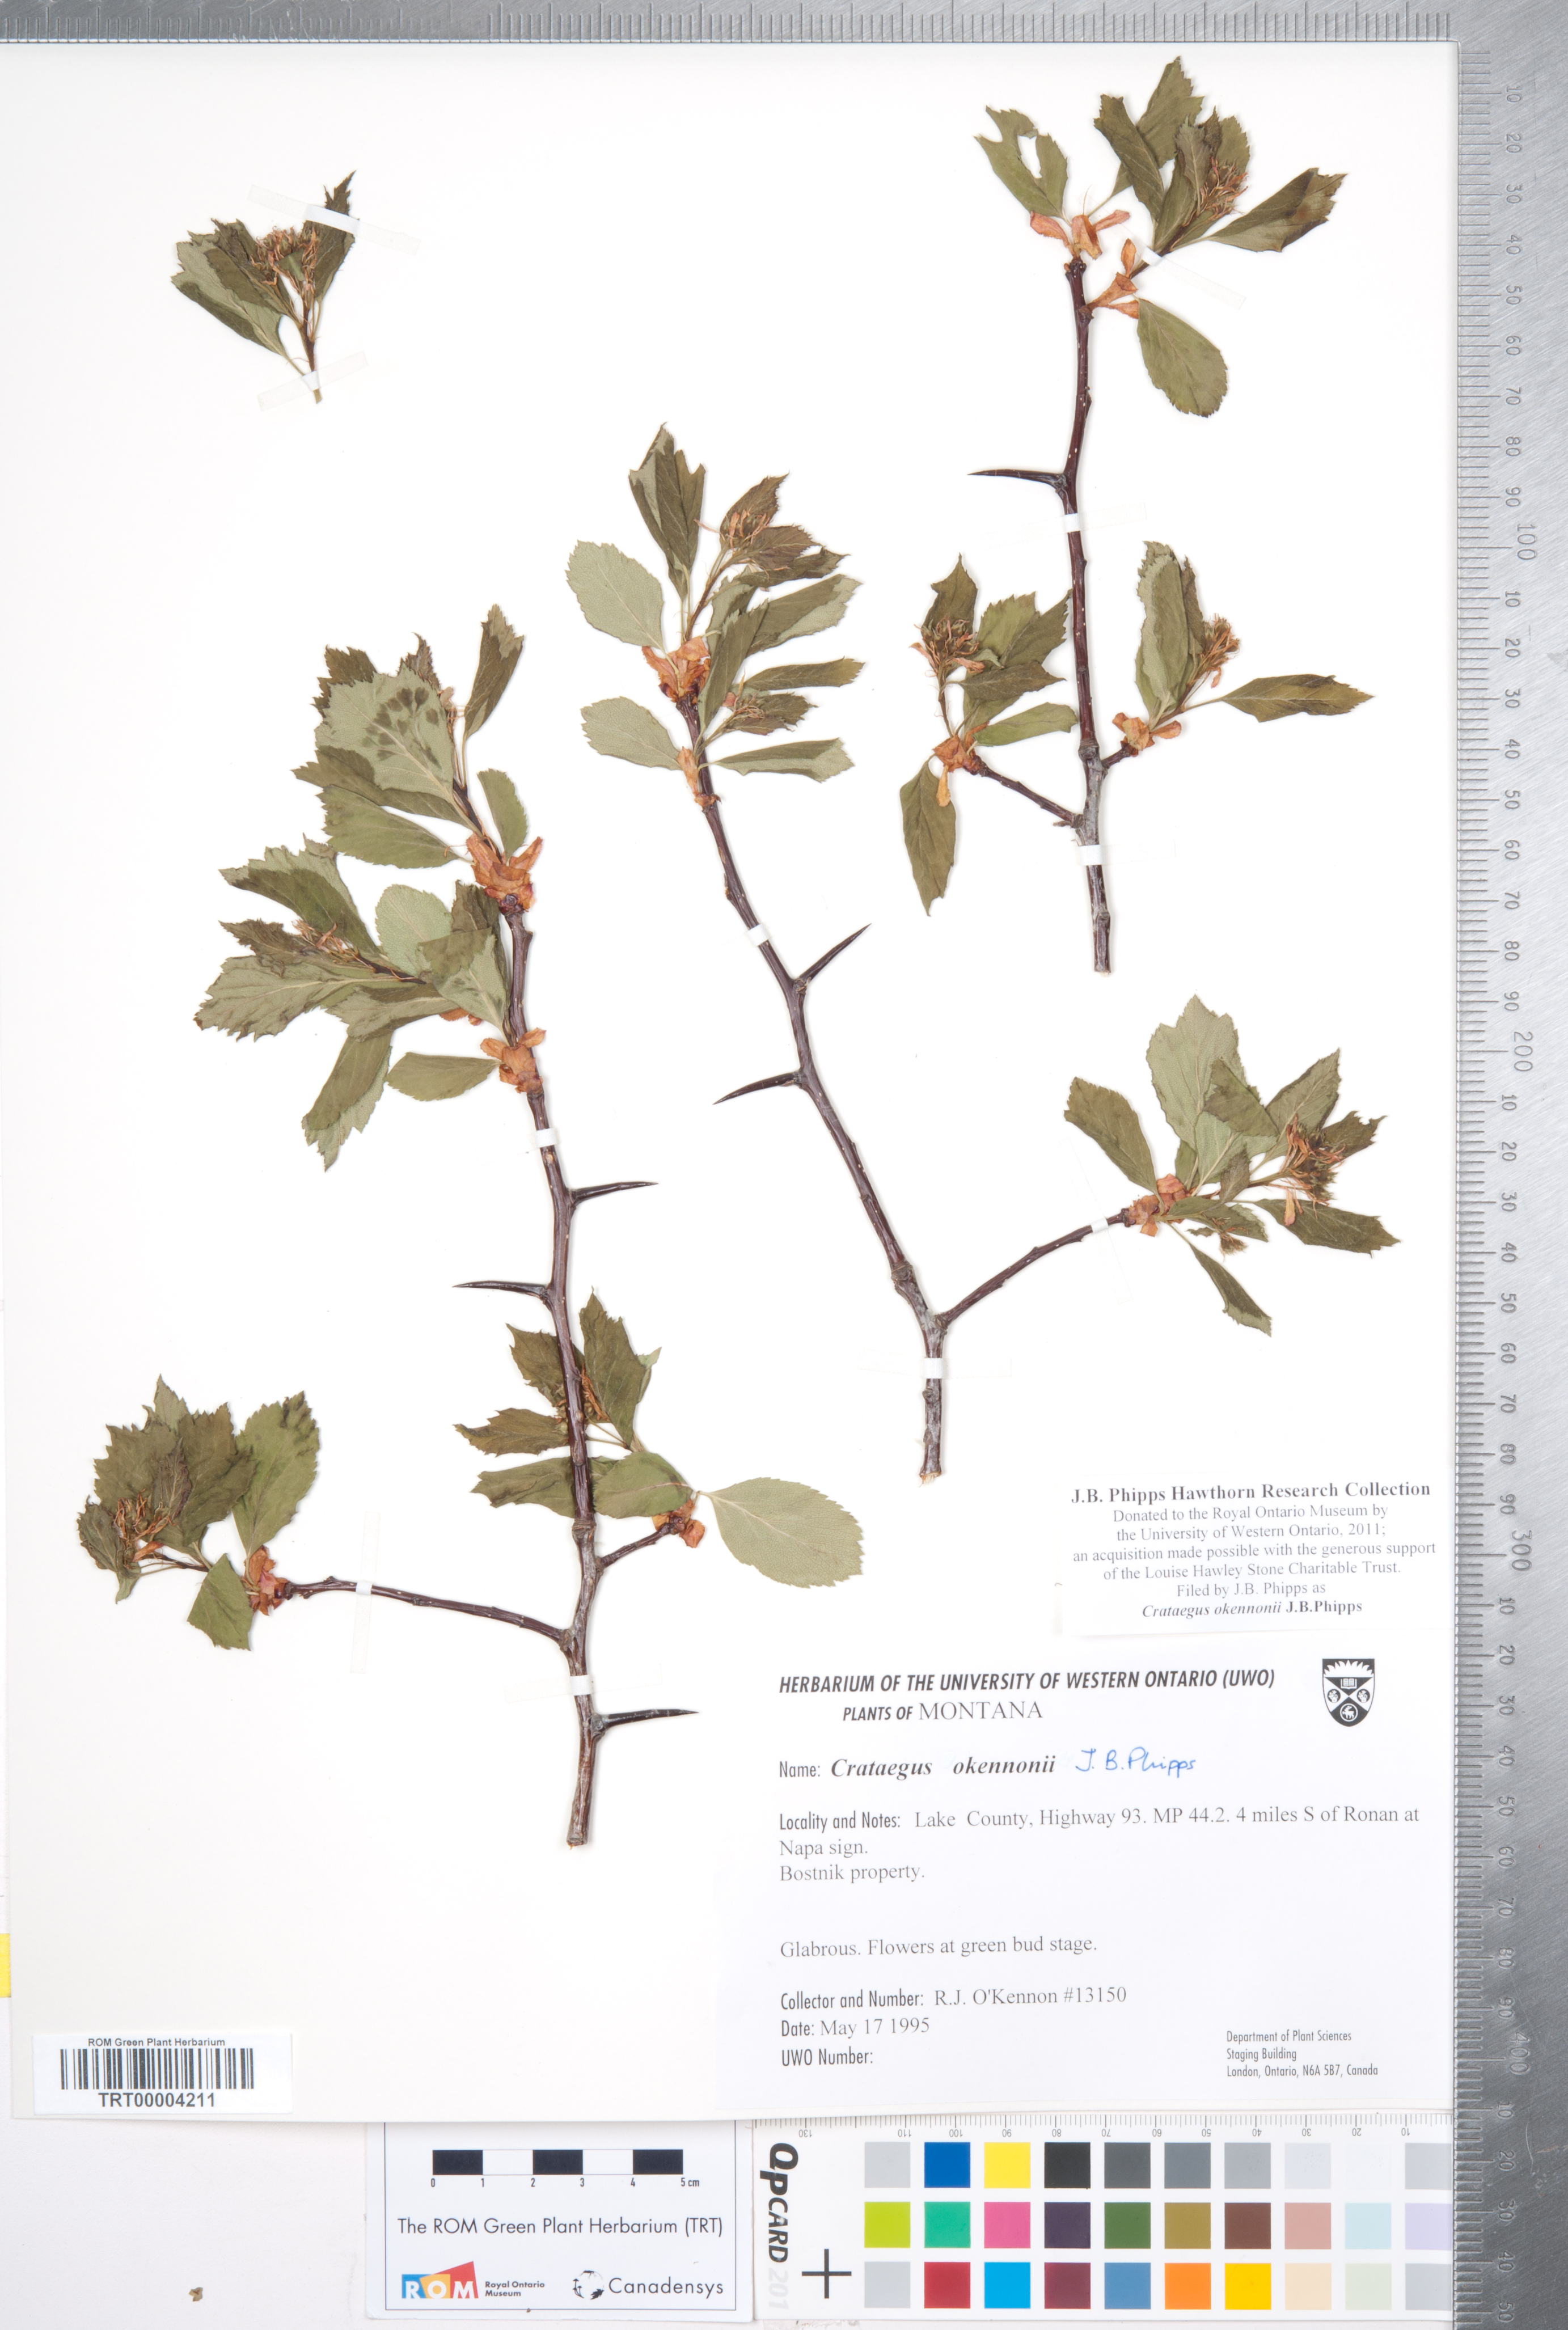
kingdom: Plantae
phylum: Tracheophyta
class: Magnoliopsida
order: Rosales
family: Rosaceae
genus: Crataegus
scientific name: Crataegus okennonii
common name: O'kennon's hawthorn
